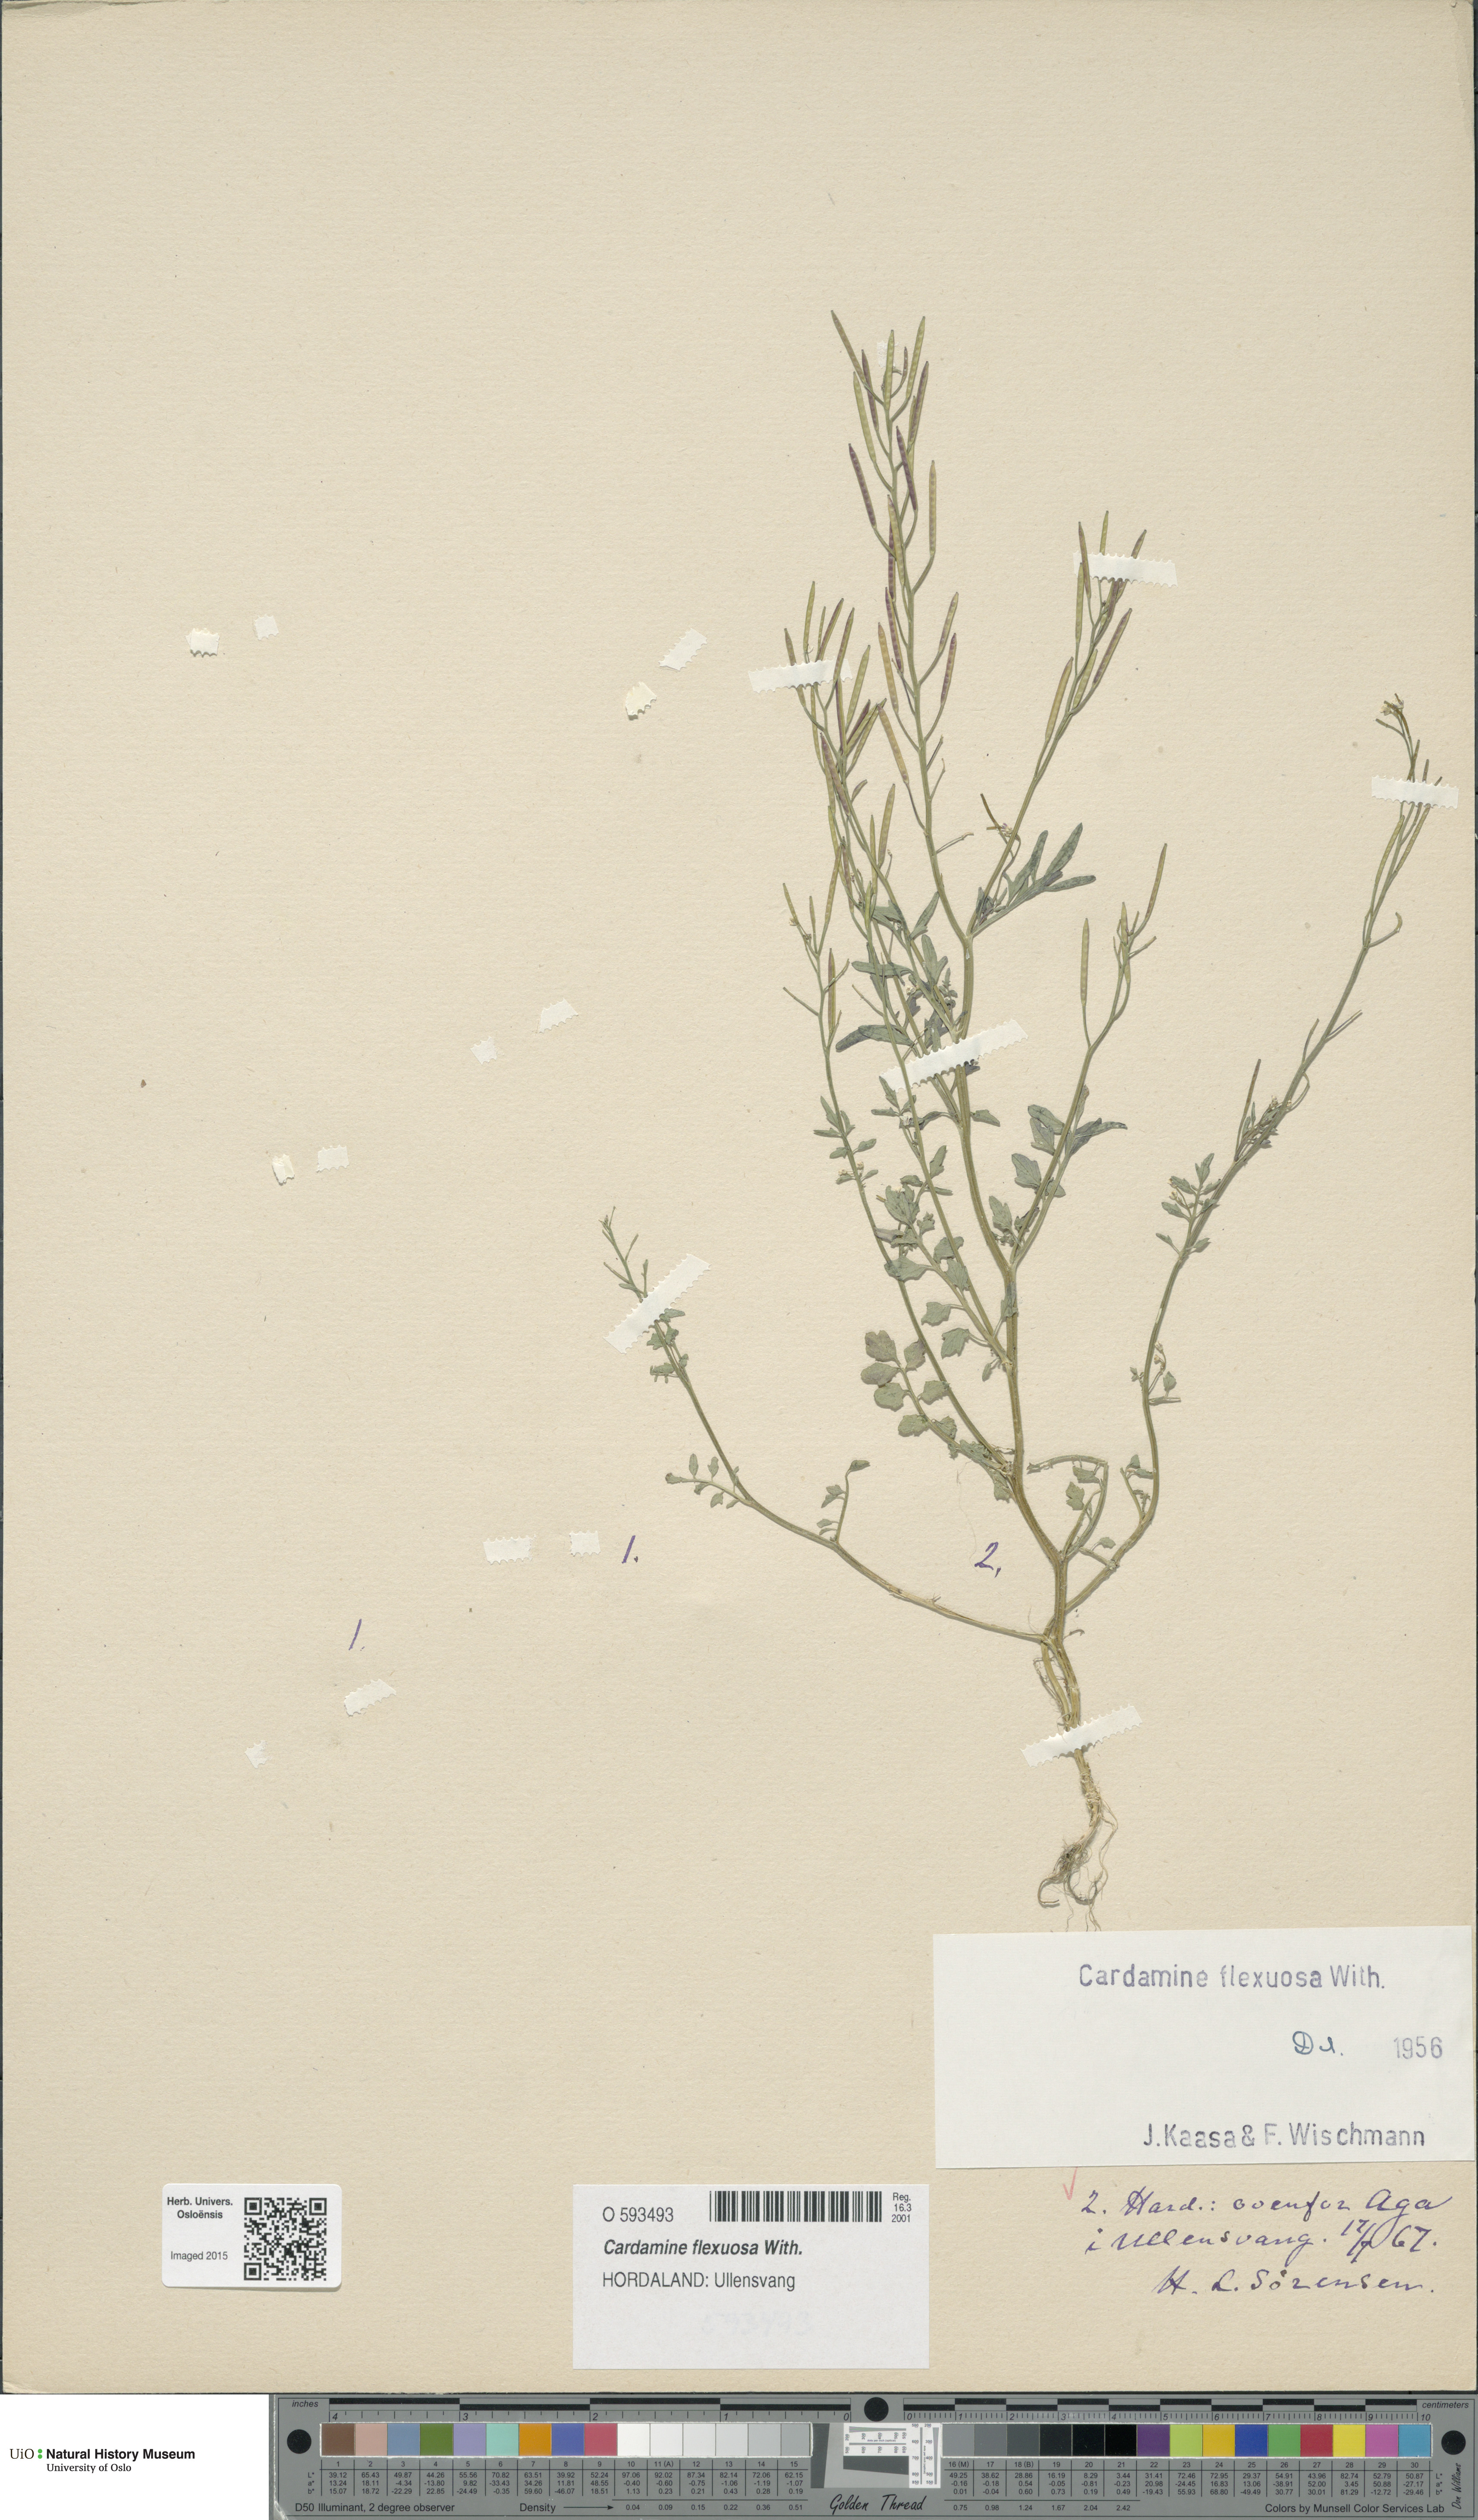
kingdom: Plantae
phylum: Tracheophyta
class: Magnoliopsida
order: Brassicales
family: Brassicaceae
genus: Cardamine
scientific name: Cardamine flexuosa
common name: Woodland bittercress
